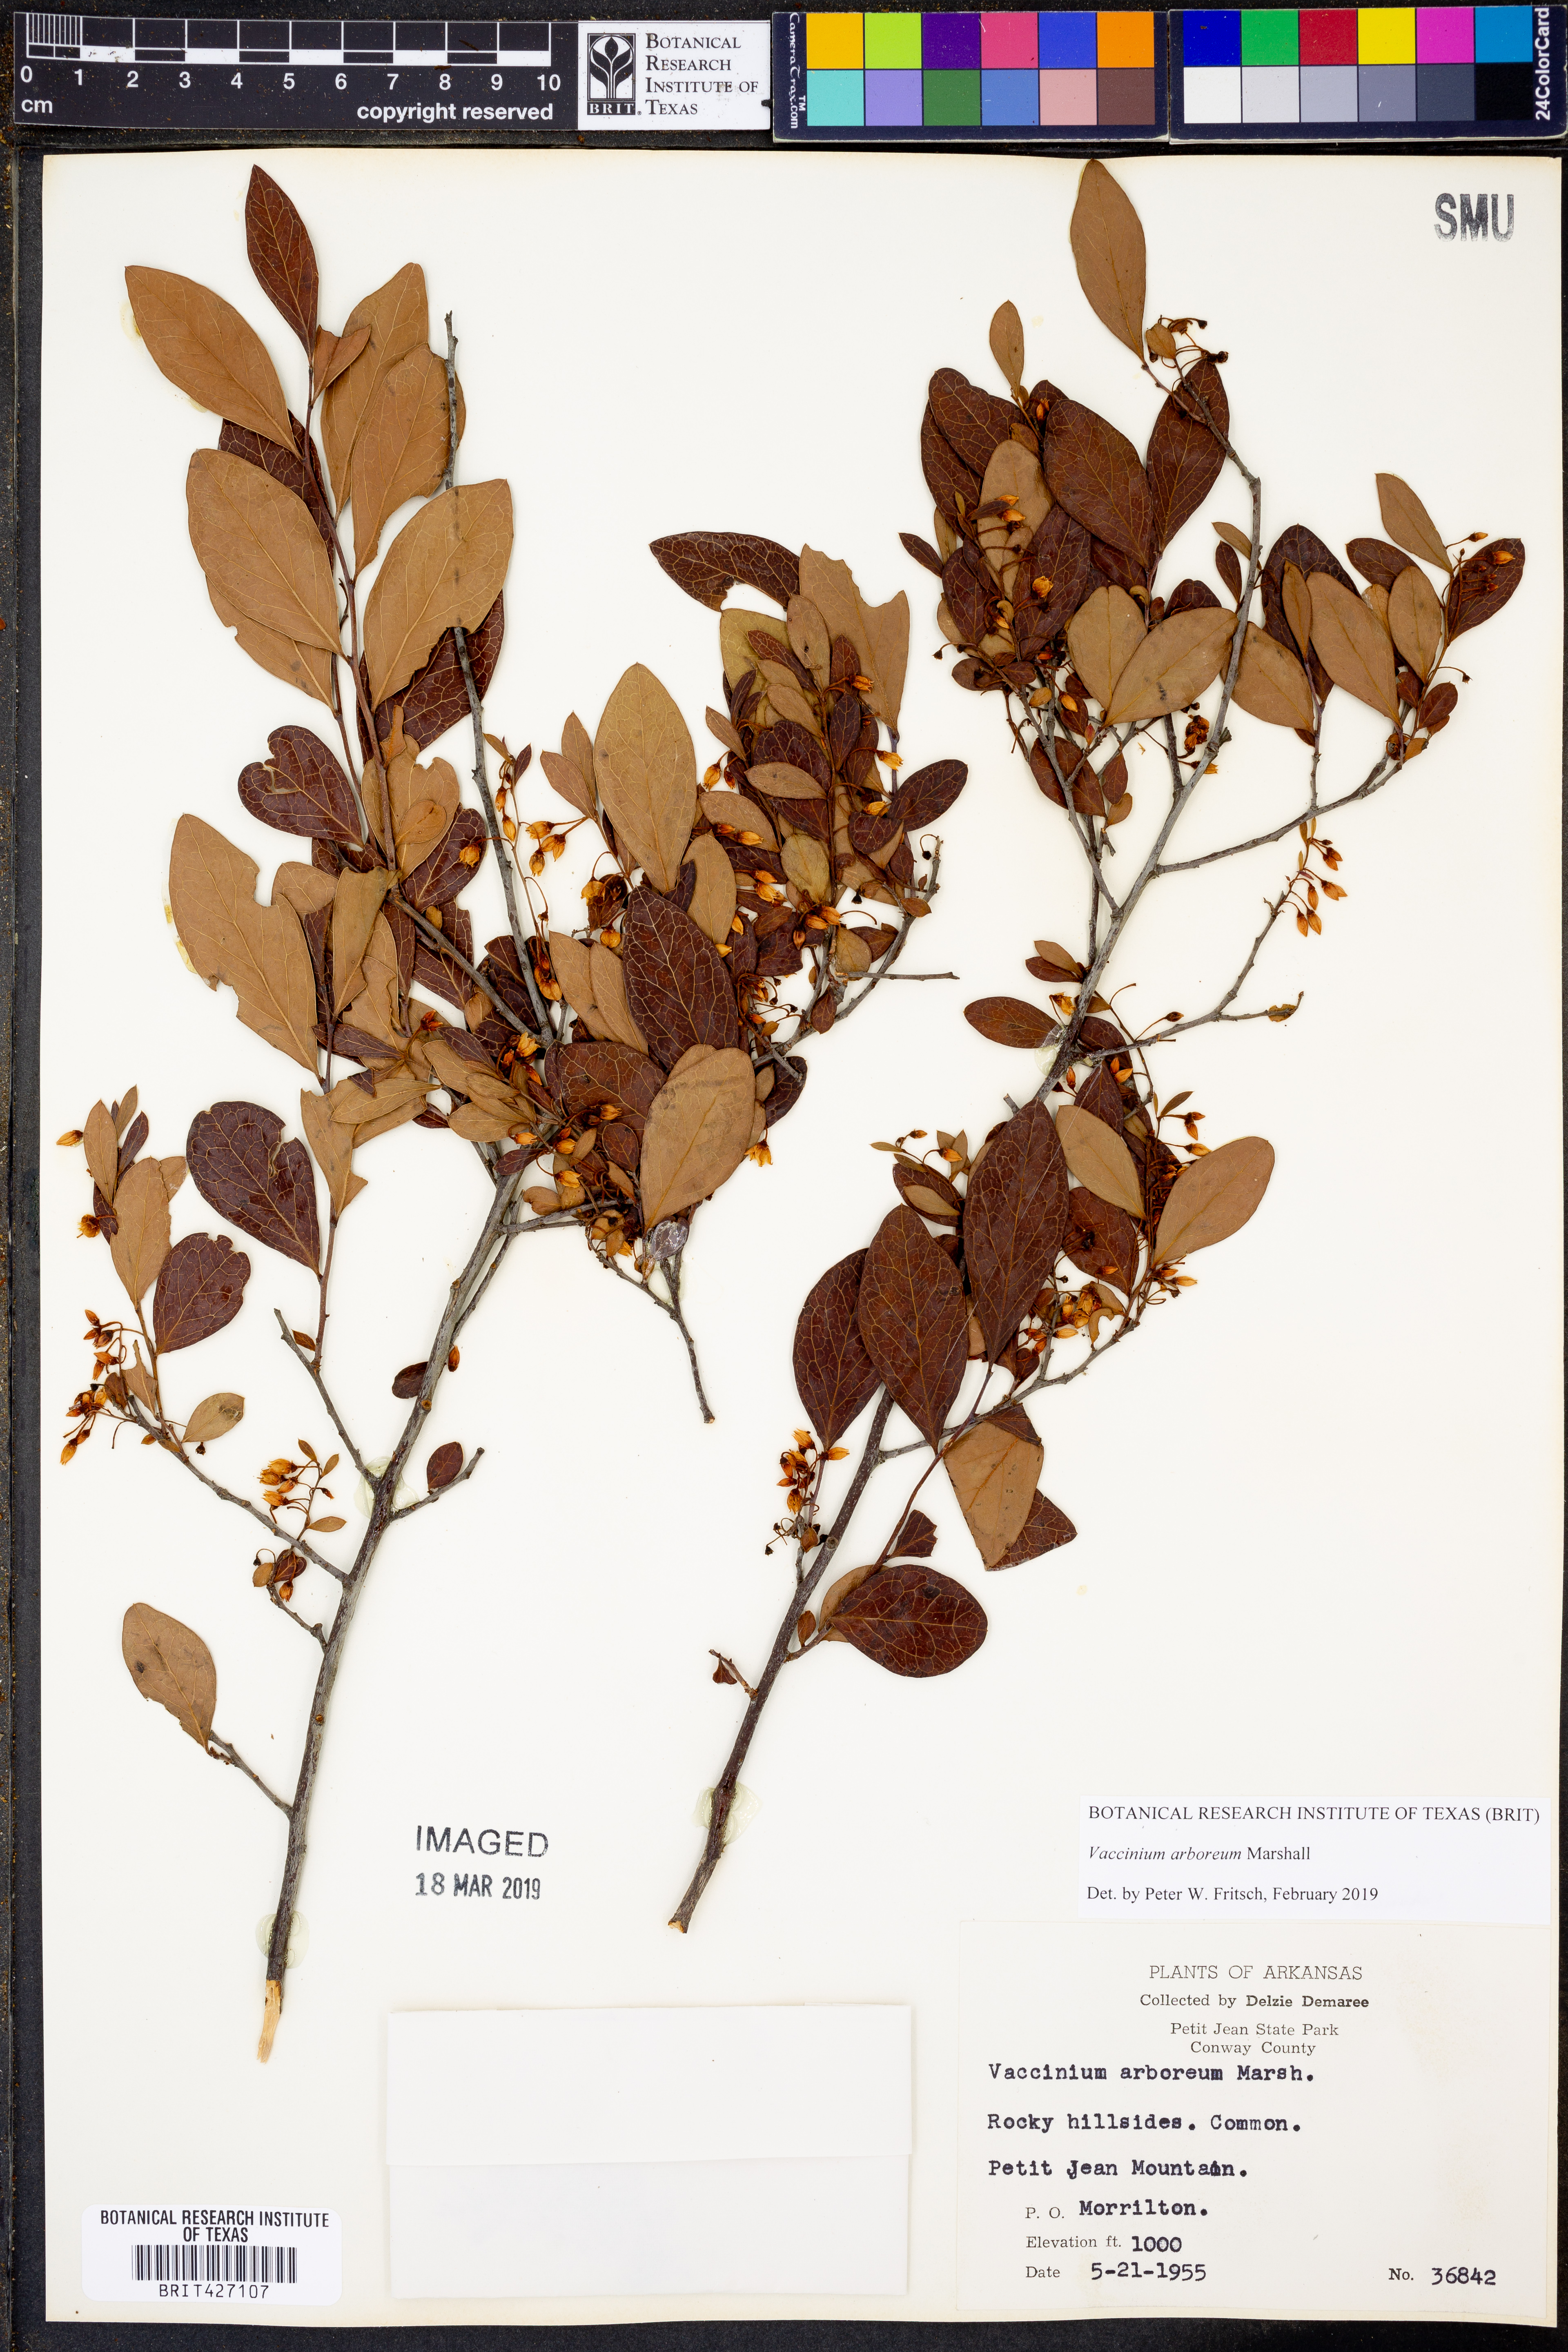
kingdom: Plantae
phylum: Tracheophyta
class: Magnoliopsida
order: Ericales
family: Ericaceae
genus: Vaccinium
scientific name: Vaccinium arboreum
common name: Farkleberry
